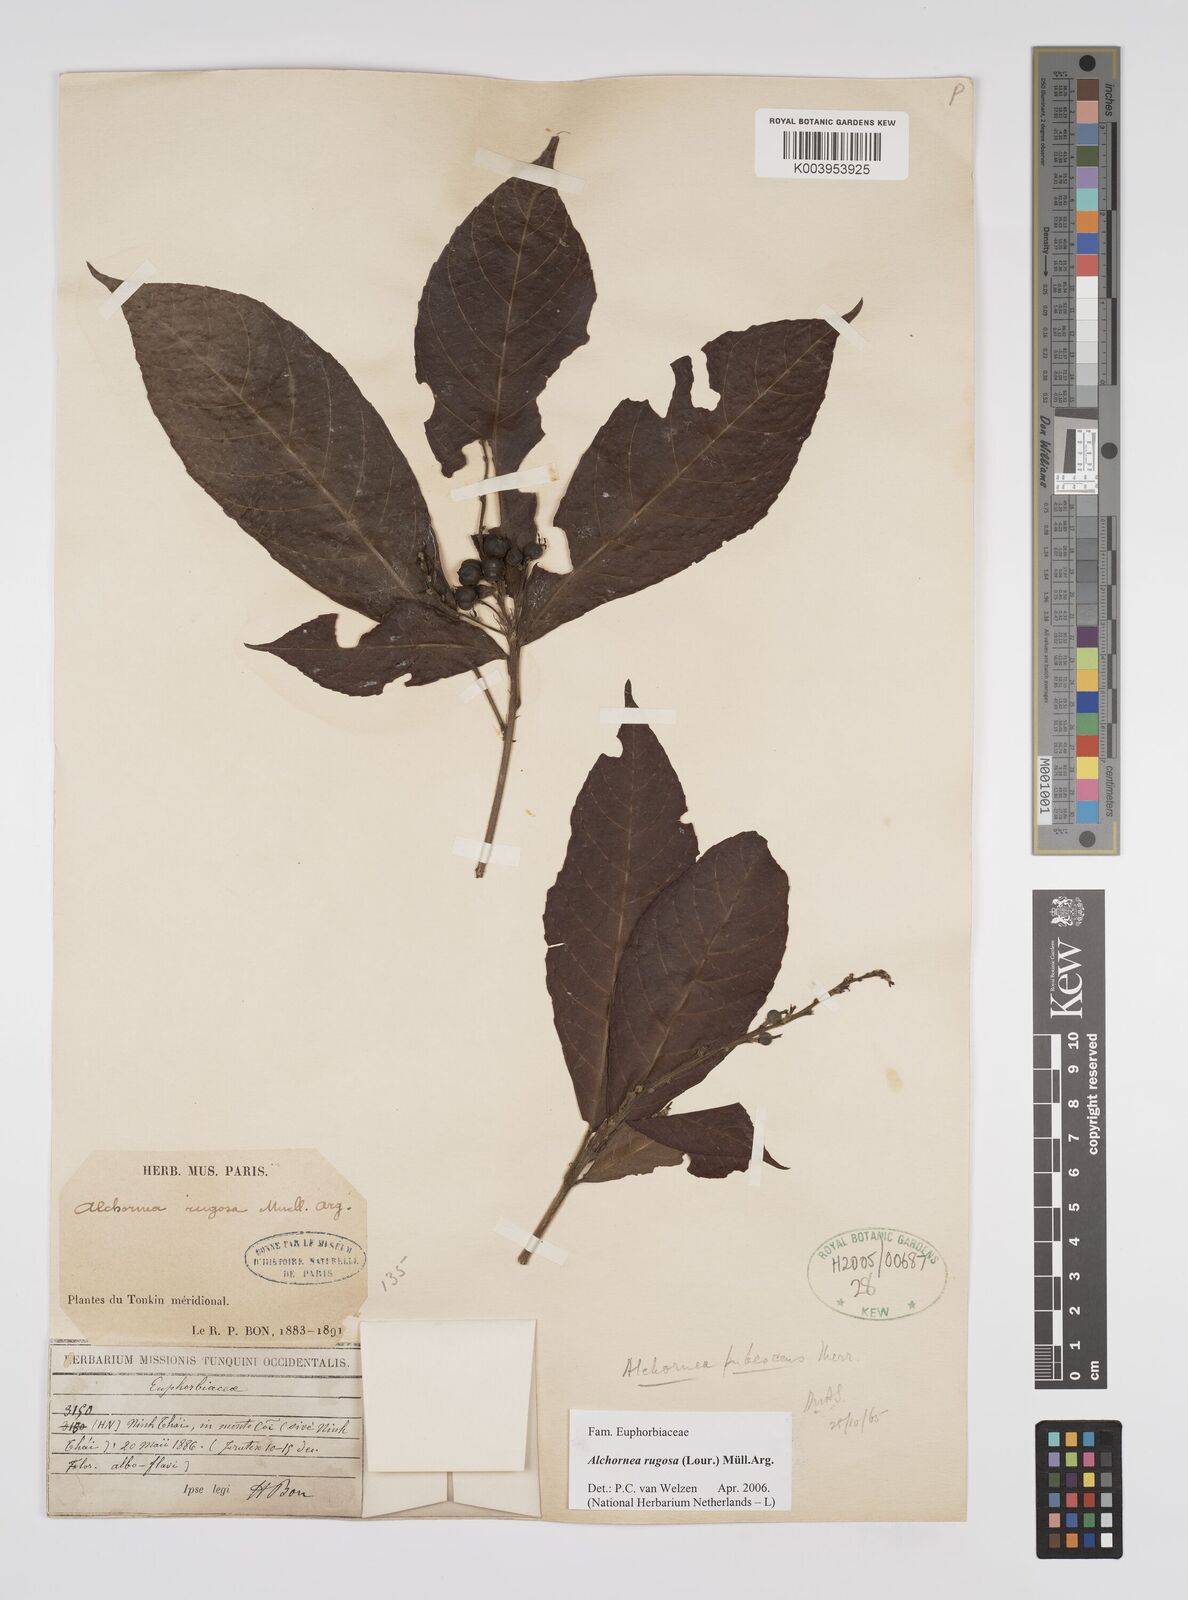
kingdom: Plantae
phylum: Tracheophyta
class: Magnoliopsida
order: Malpighiales
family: Euphorbiaceae
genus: Alchornea
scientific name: Alchornea rugosa
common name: Alchorntree
